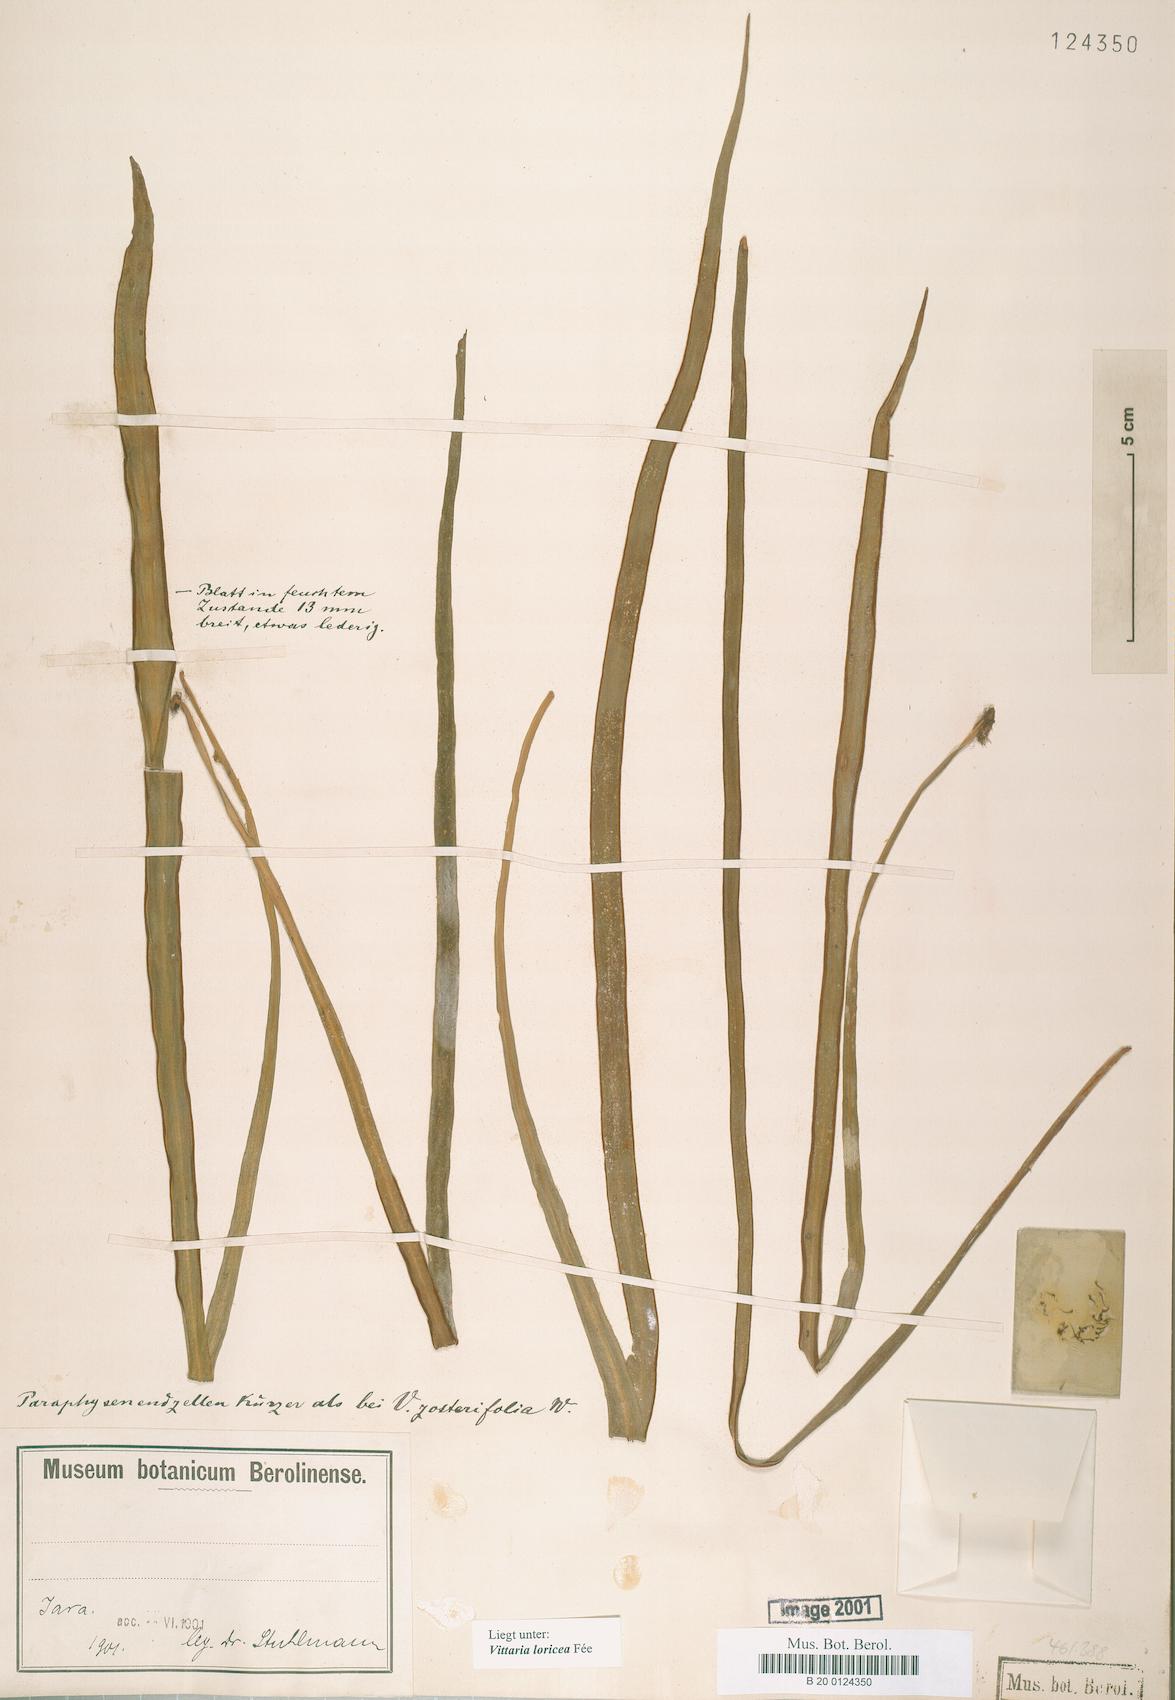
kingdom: Plantae
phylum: Tracheophyta
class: Polypodiopsida
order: Polypodiales
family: Pteridaceae
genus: Haplopteris
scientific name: Haplopteris zosterifolia
